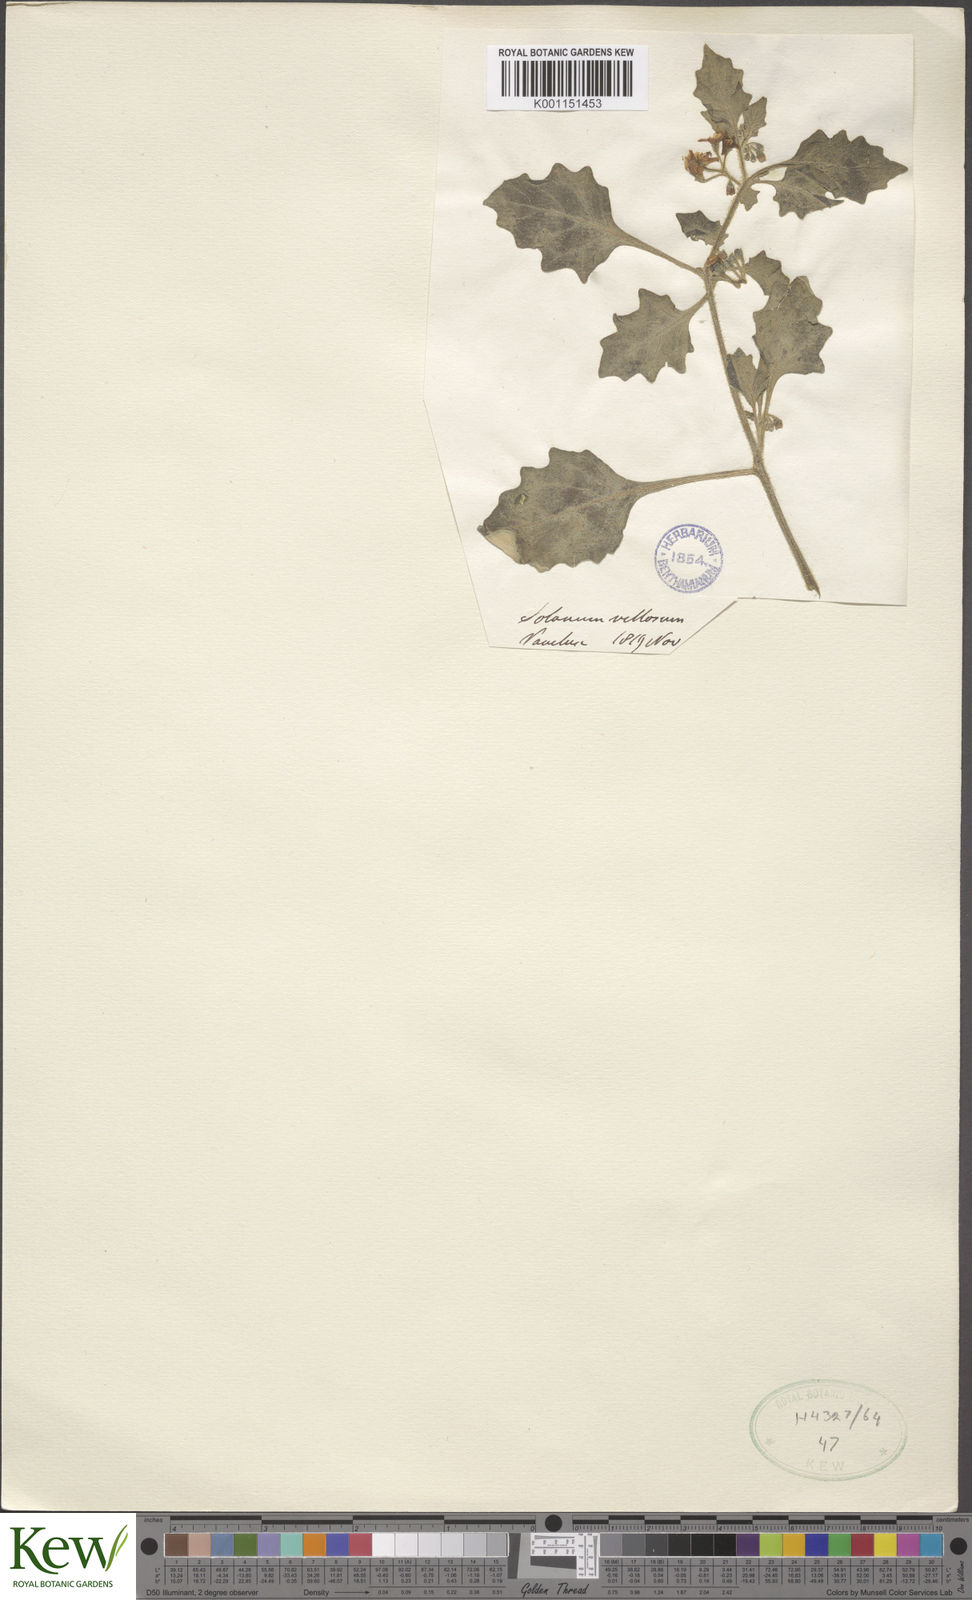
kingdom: Plantae
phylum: Tracheophyta
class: Magnoliopsida
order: Solanales
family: Solanaceae
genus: Solanum
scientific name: Solanum villosum
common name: Red nightshade
